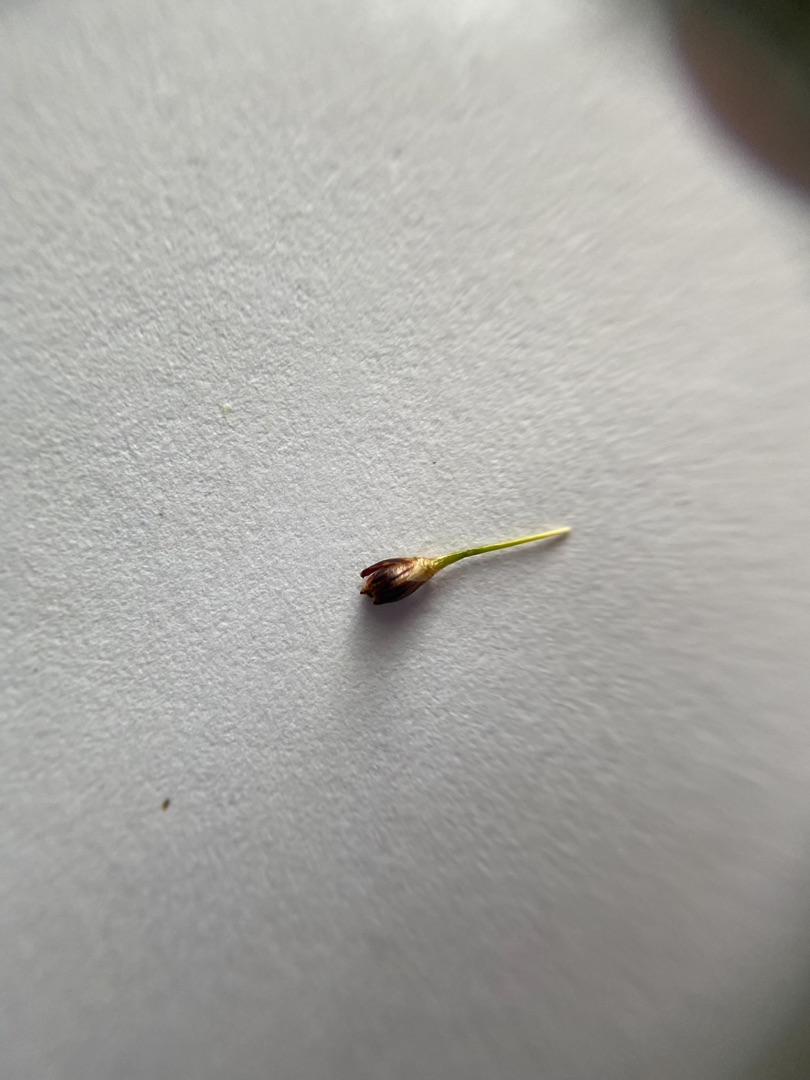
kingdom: Plantae
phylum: Tracheophyta
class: Liliopsida
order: Poales
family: Juncaceae
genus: Juncus
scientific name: Juncus gerardi
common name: Harril
